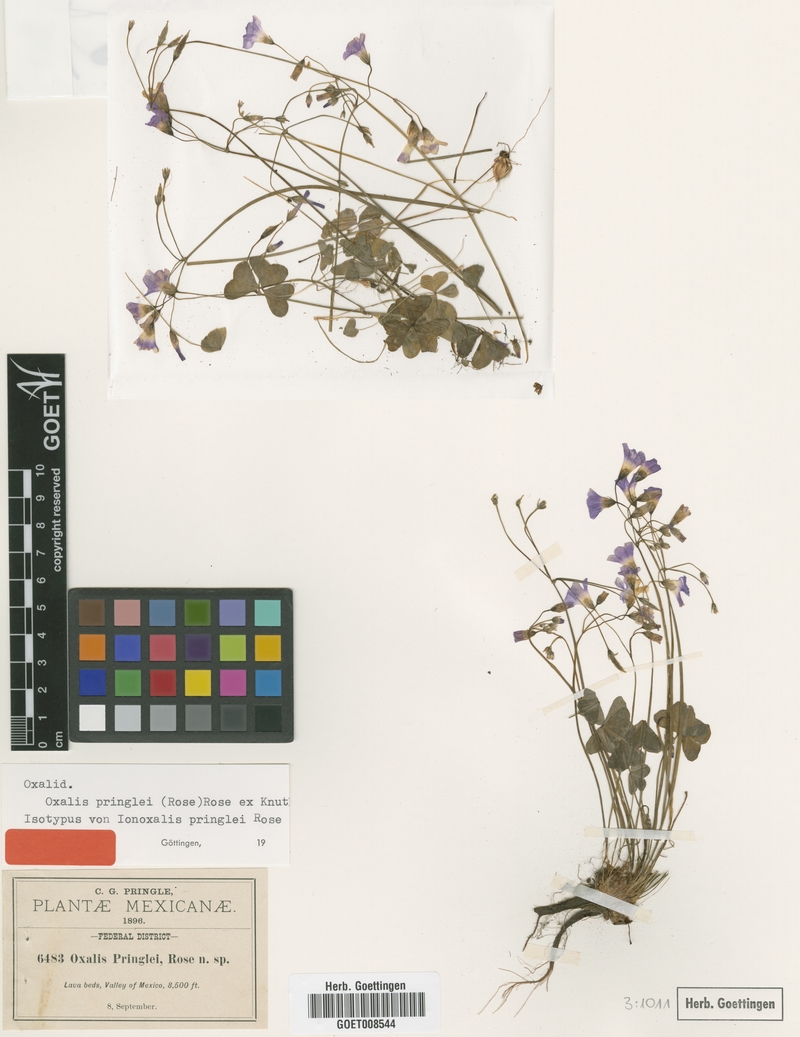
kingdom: Plantae
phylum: Tracheophyta
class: Magnoliopsida
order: Oxalidales
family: Oxalidaceae
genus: Oxalis
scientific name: Oxalis alpina
